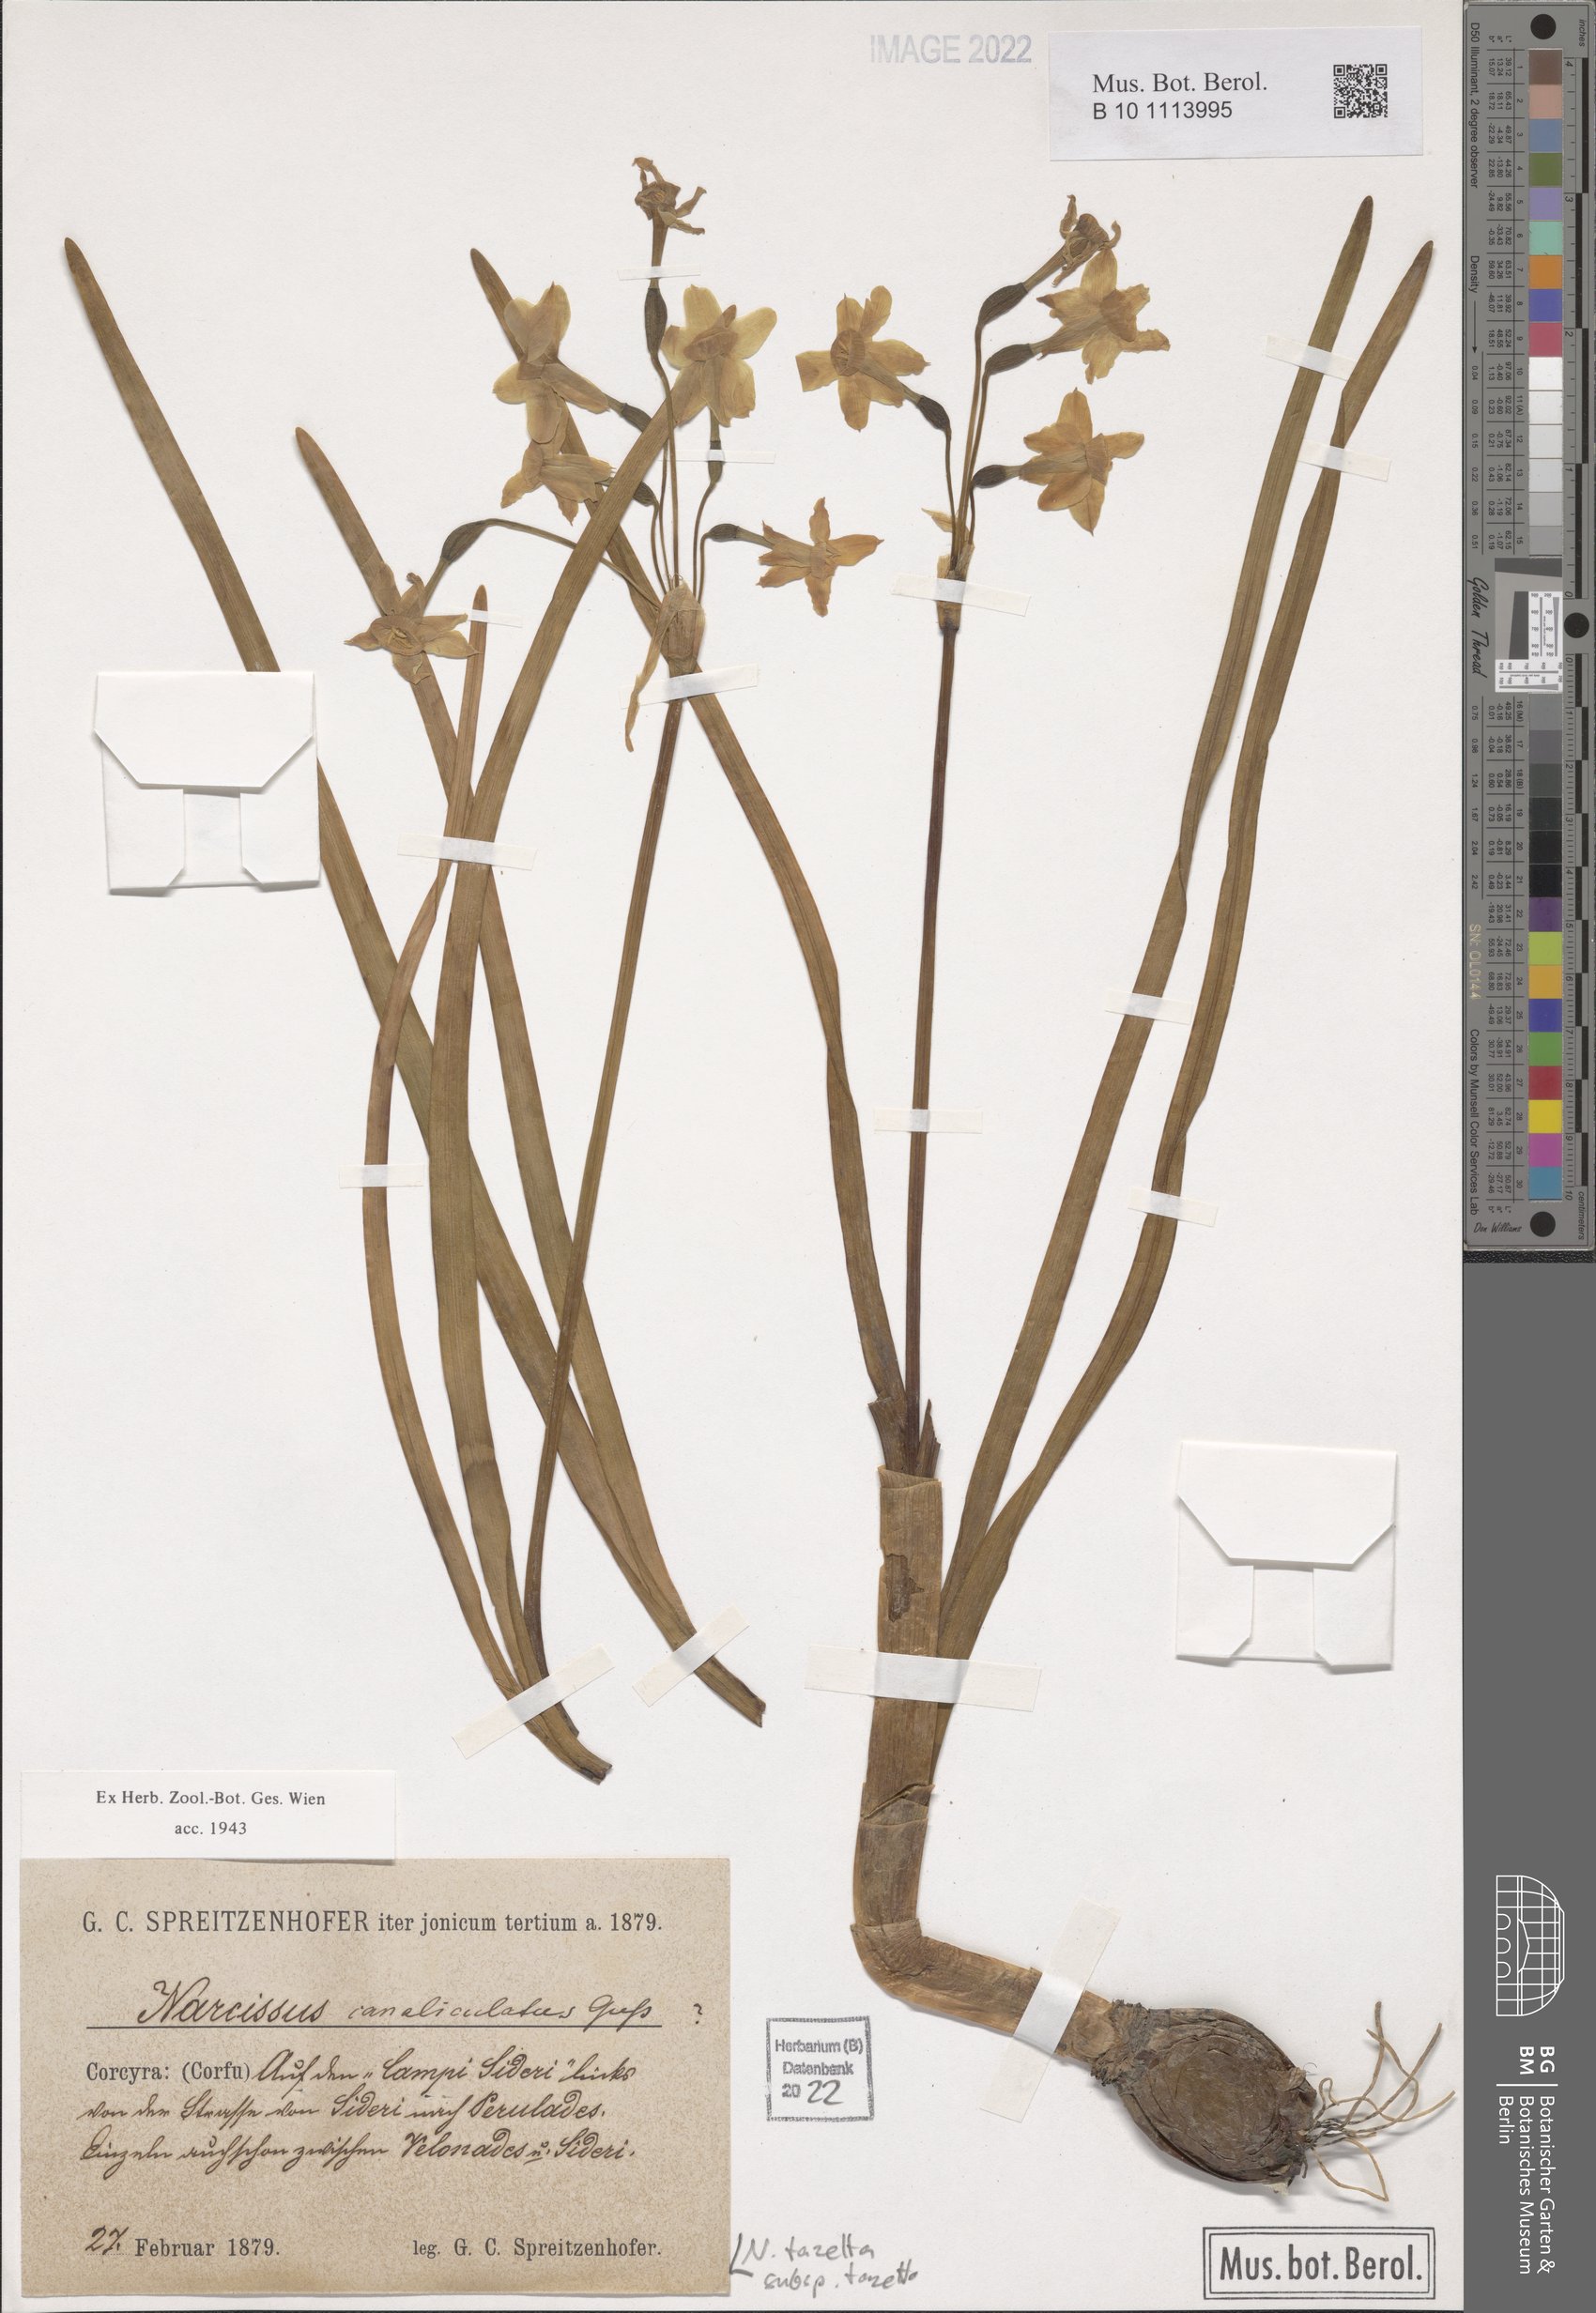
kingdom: Plantae
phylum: Tracheophyta
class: Liliopsida
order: Asparagales
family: Amaryllidaceae
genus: Narcissus
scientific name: Narcissus tazetta
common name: Bunch-flowered daffodil
